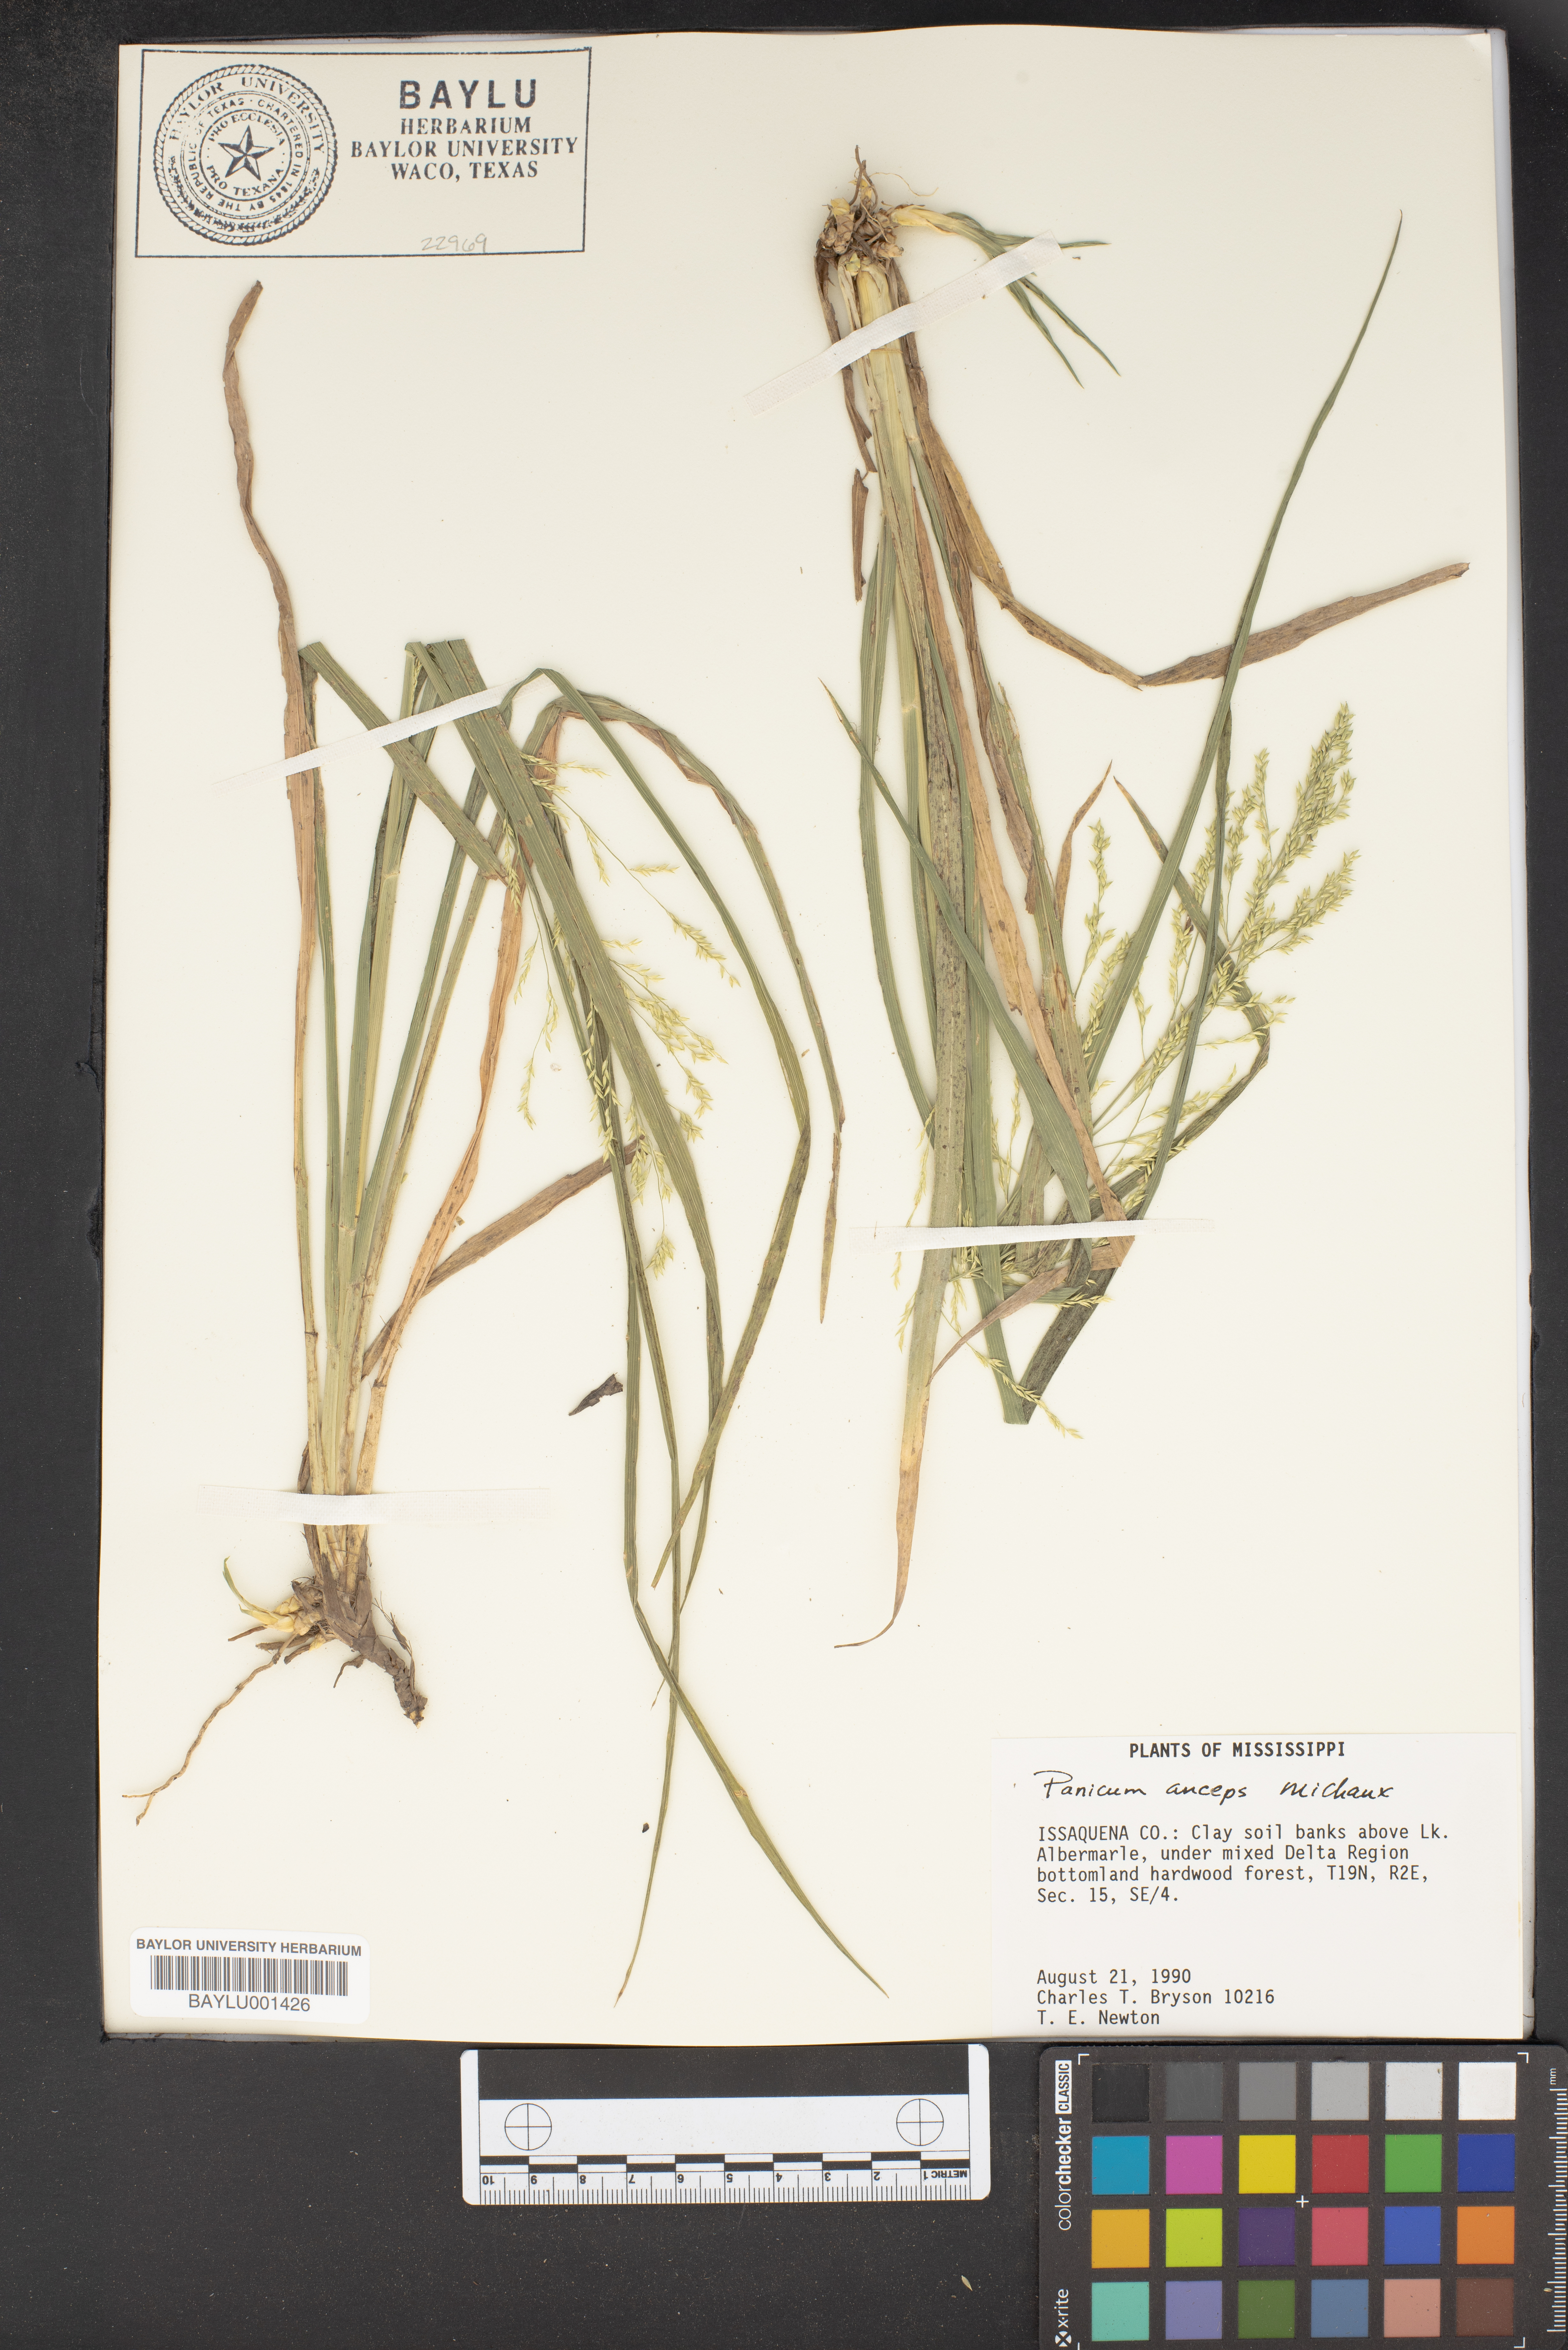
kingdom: Plantae
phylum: Tracheophyta
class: Liliopsida
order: Poales
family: Poaceae
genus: Coleataenia
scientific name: Coleataenia anceps
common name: Beaked panic grass
